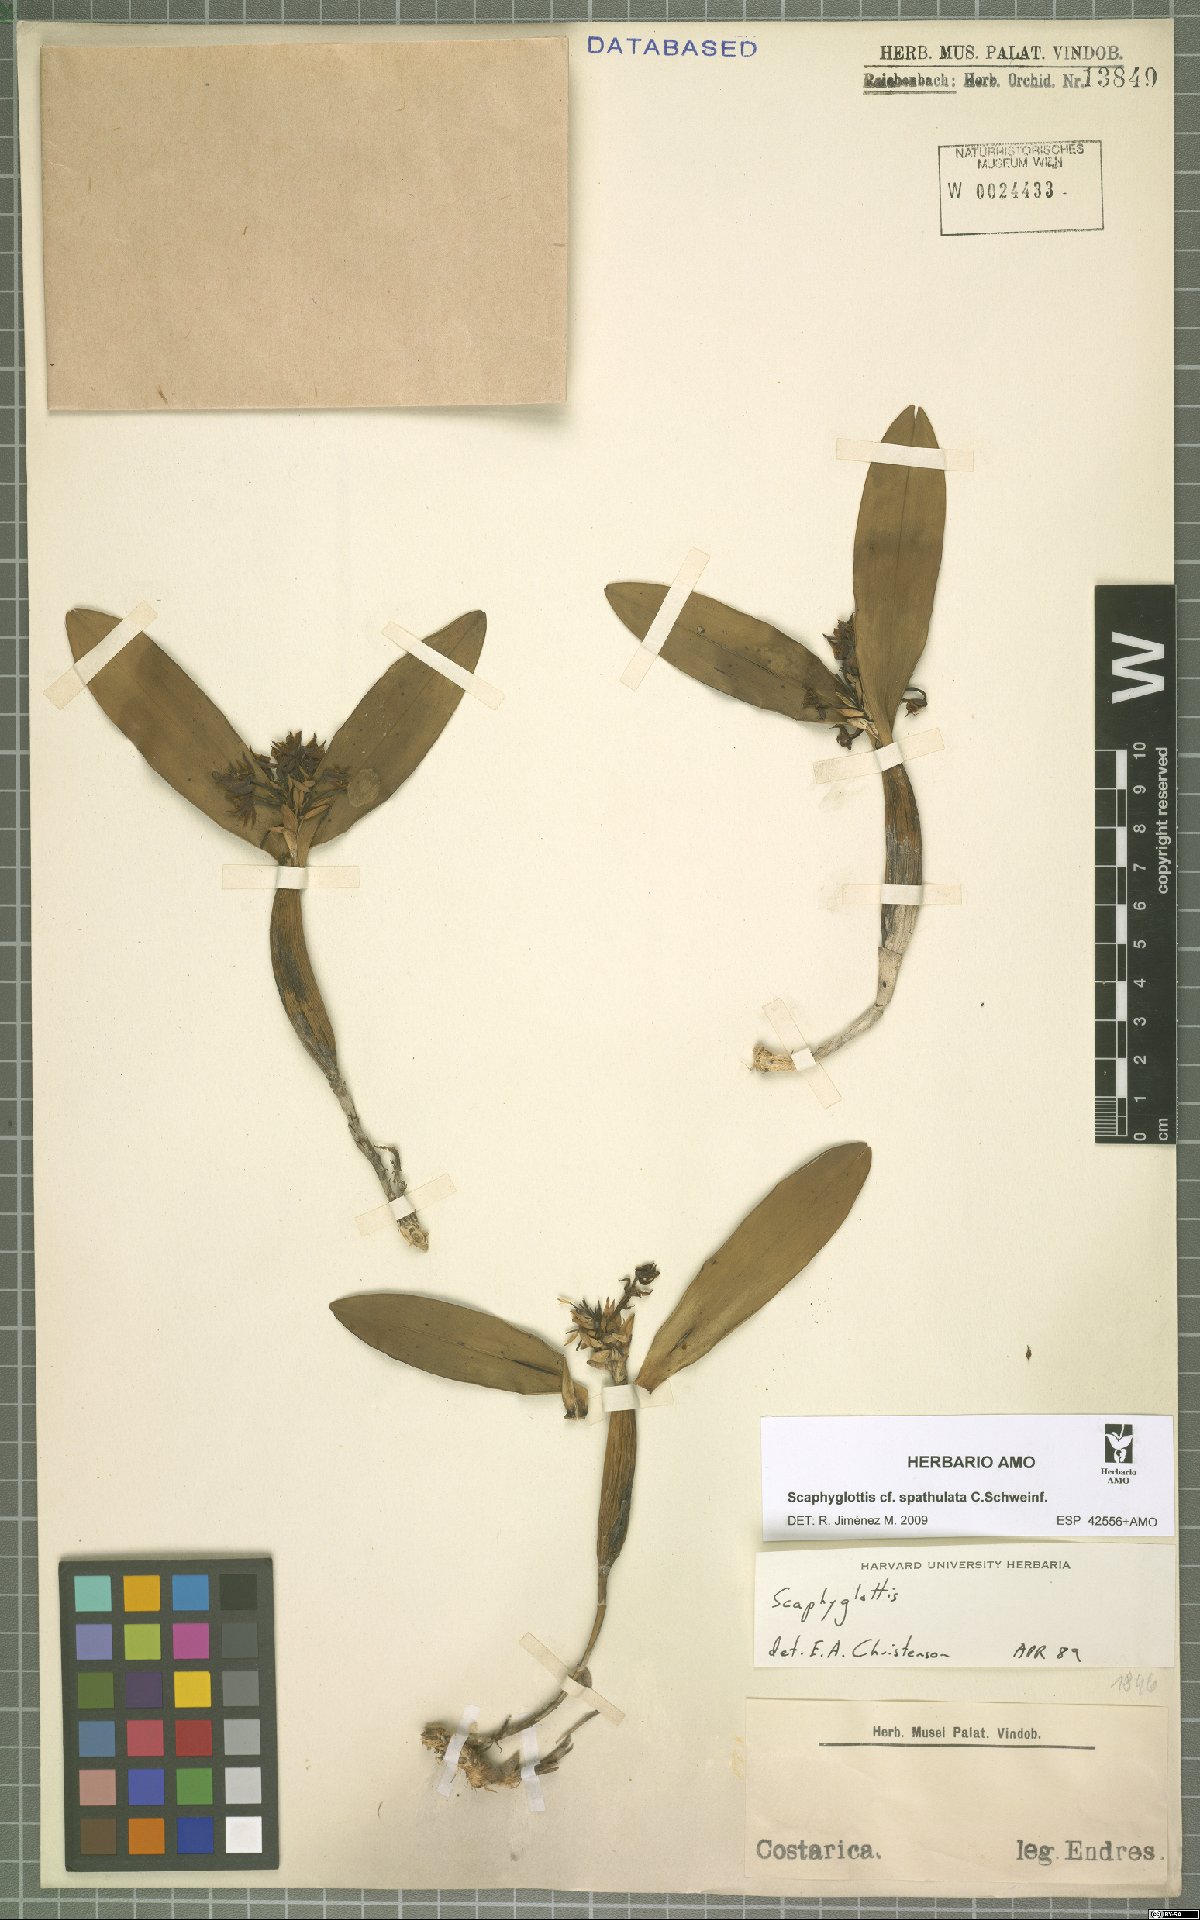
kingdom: Plantae
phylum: Tracheophyta
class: Liliopsida
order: Asparagales
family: Orchidaceae
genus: Scaphyglottis
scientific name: Scaphyglottis spathulata
